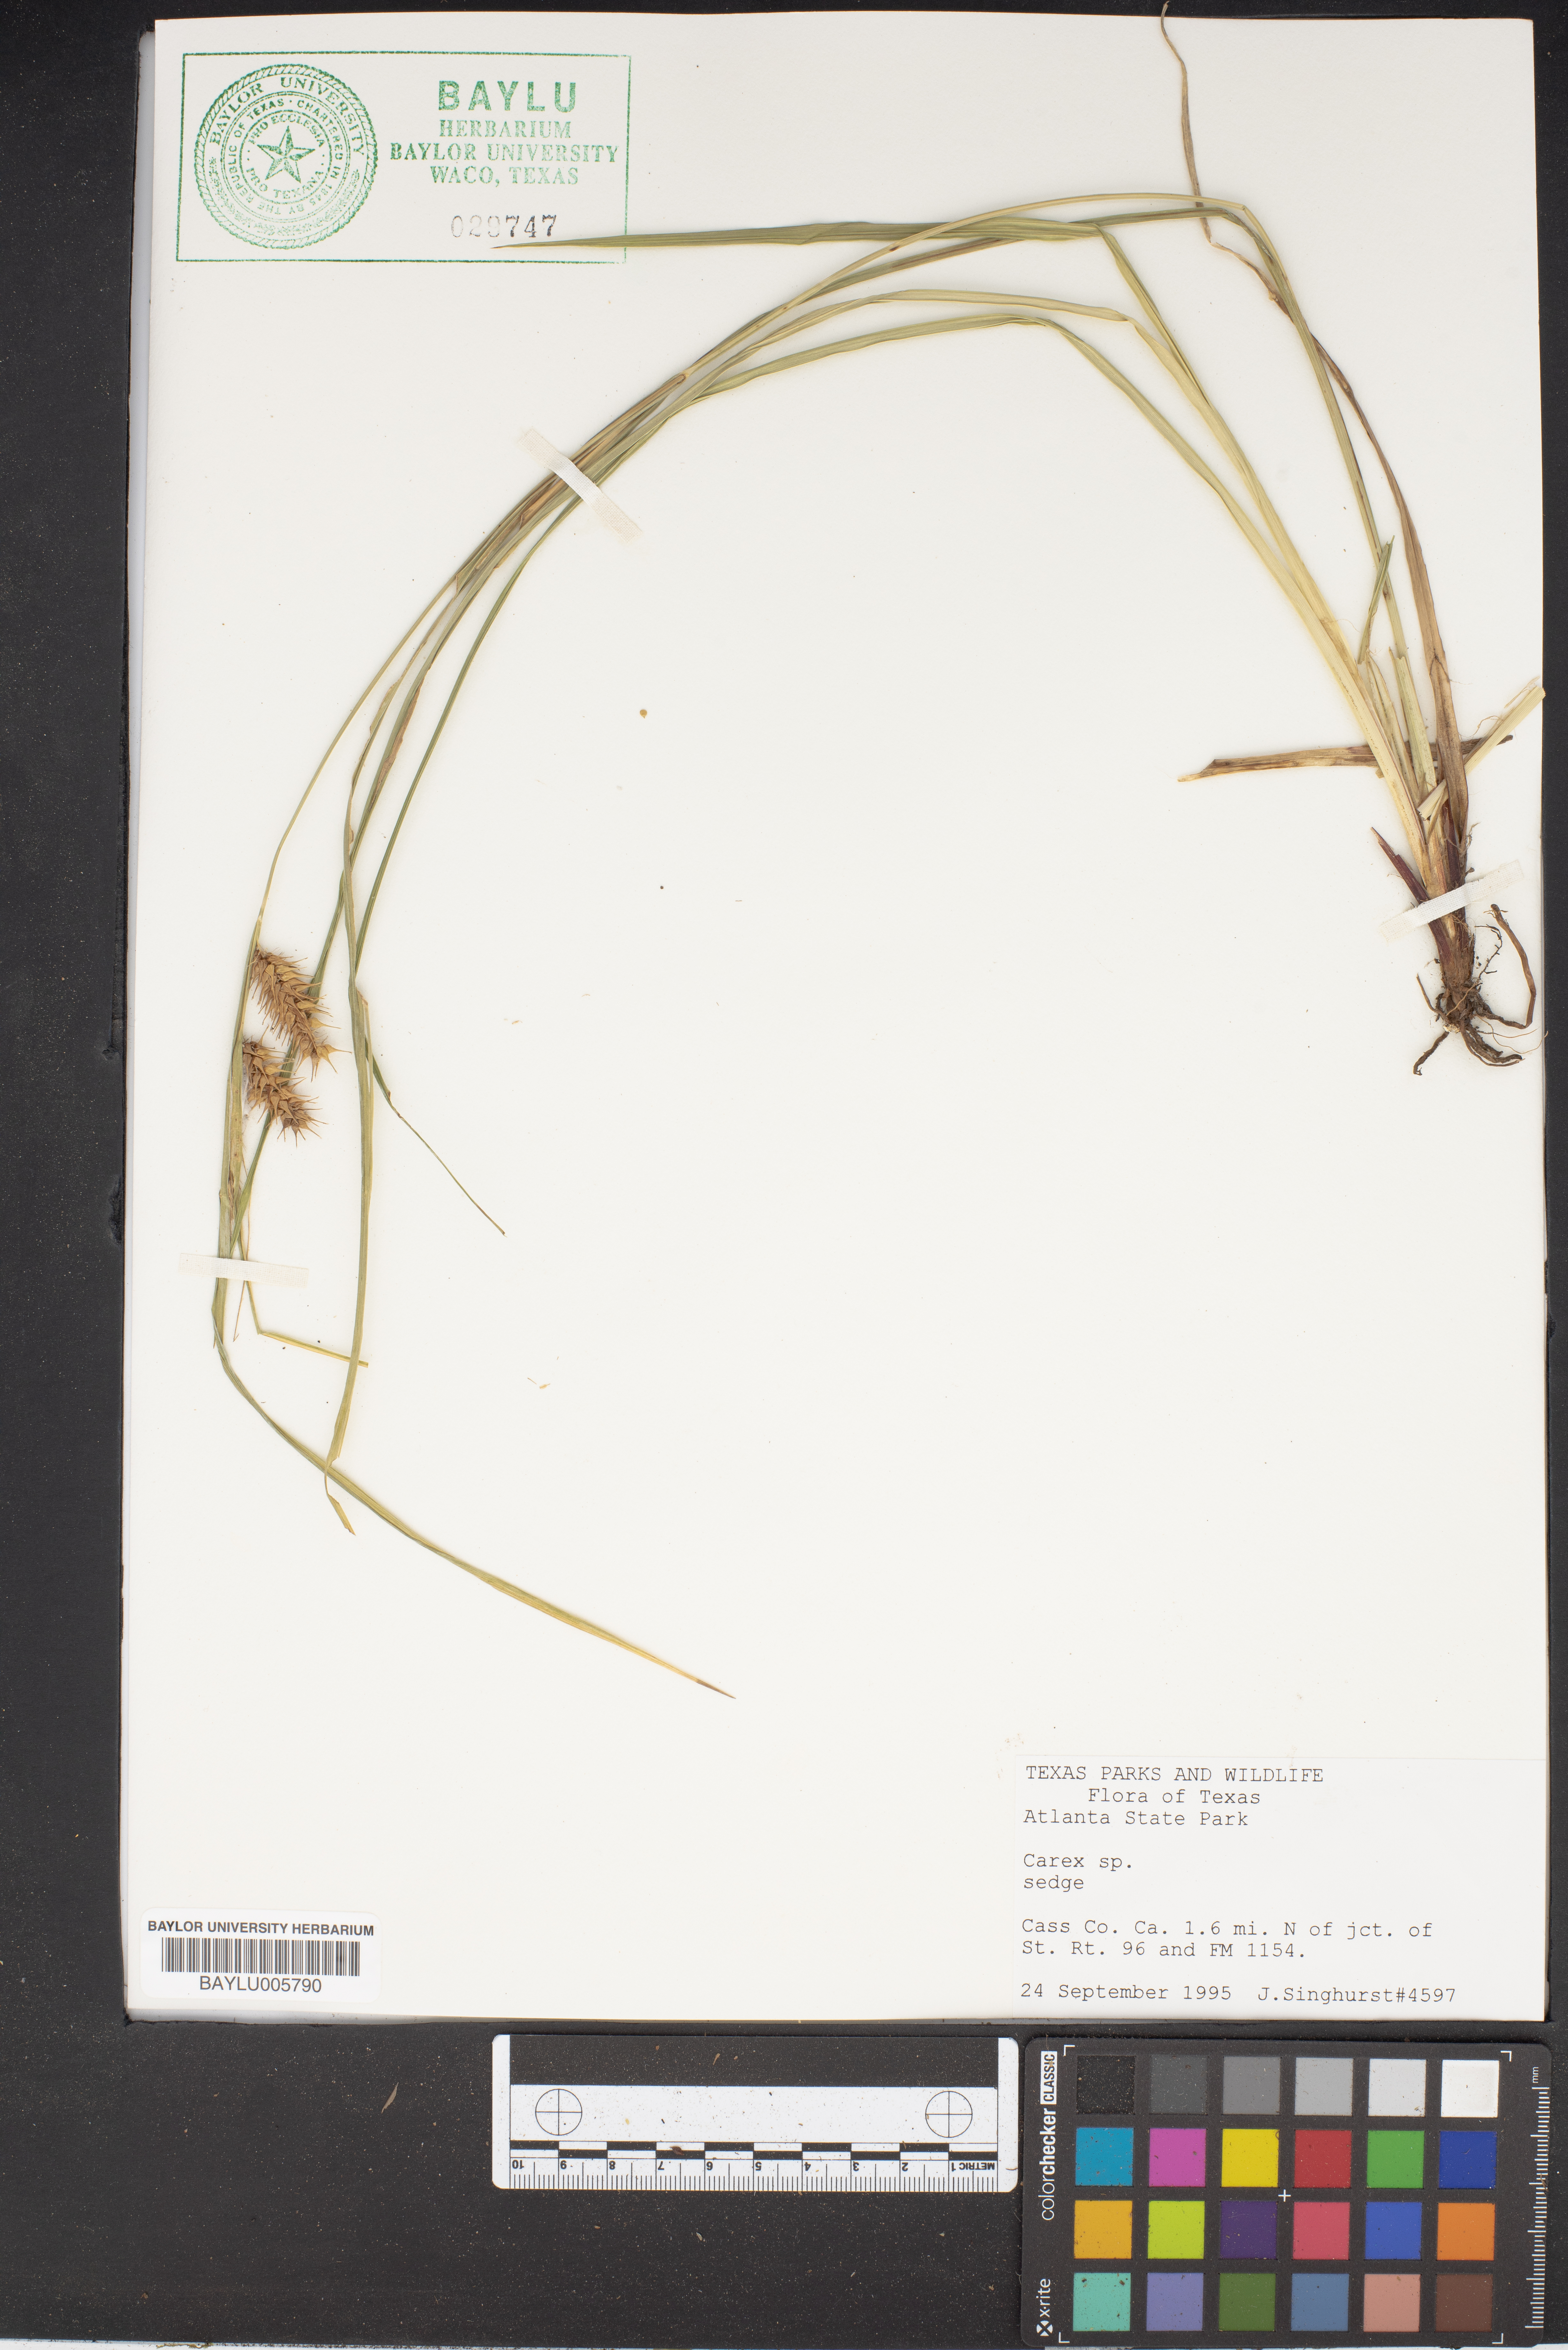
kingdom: Plantae
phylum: Tracheophyta
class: Liliopsida
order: Poales
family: Cyperaceae
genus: Carex
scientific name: Carex
